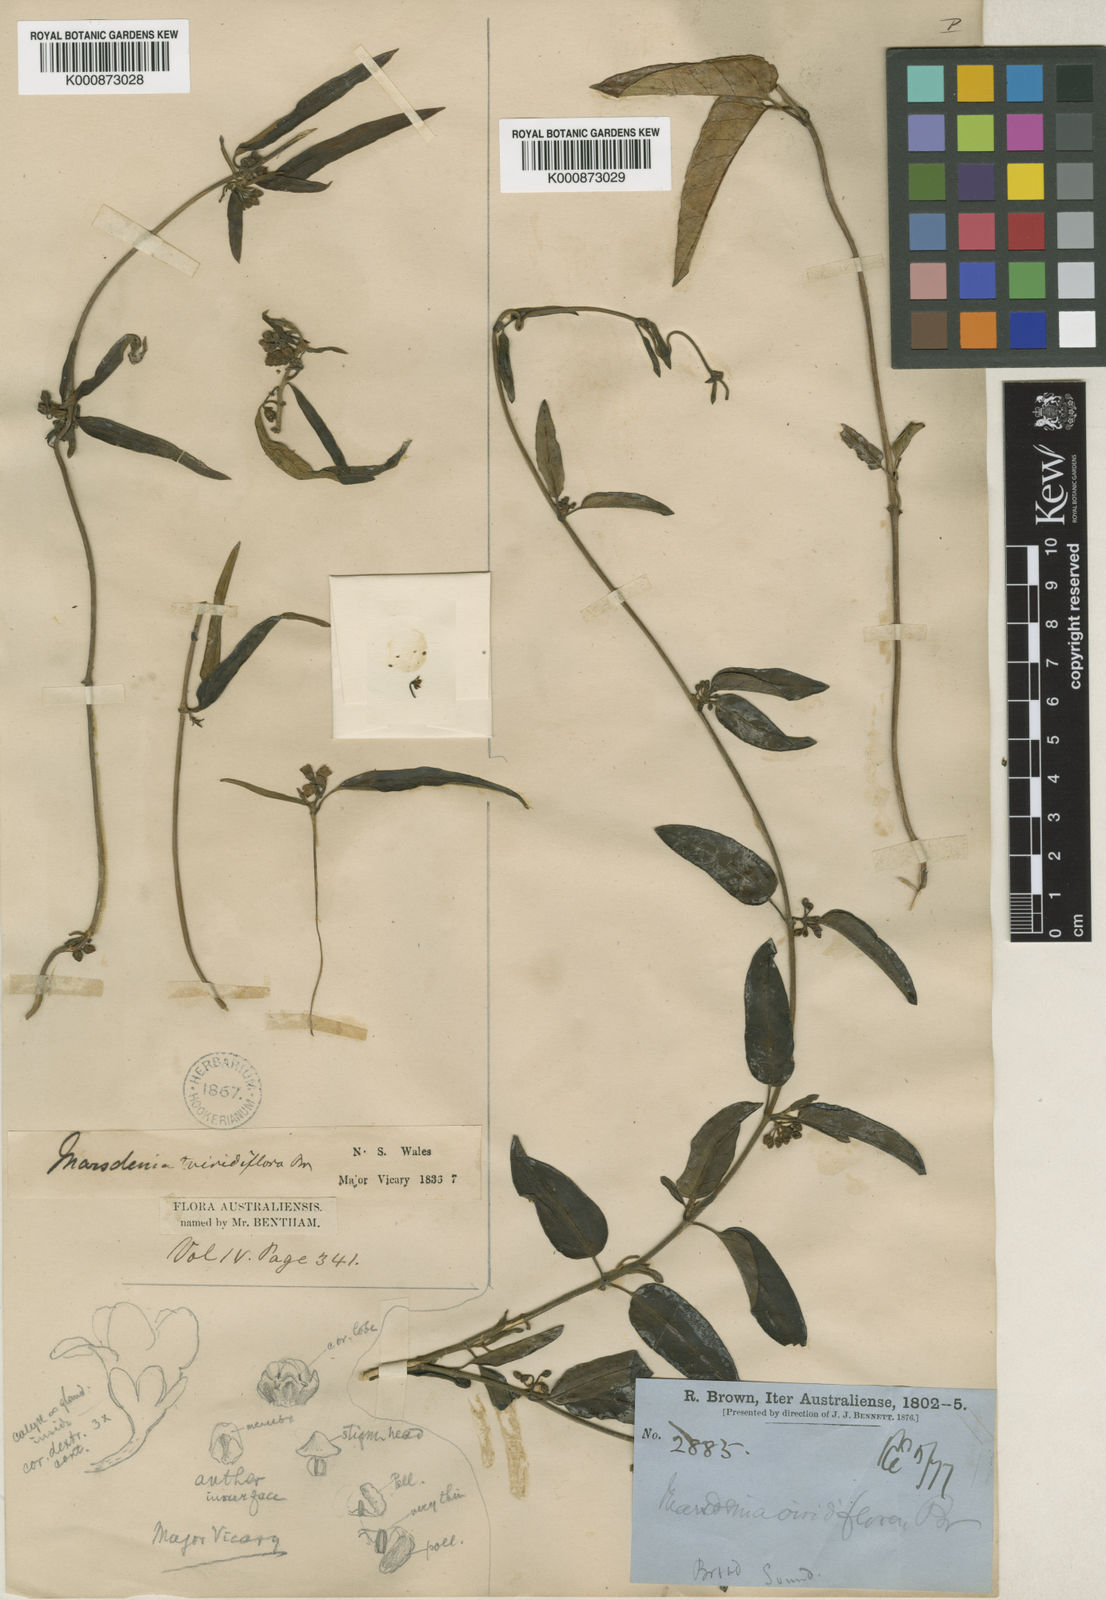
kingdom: Plantae
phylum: Tracheophyta
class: Magnoliopsida
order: Gentianales
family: Apocynaceae
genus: Leichhardtia
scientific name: Leichhardtia viridiflora
